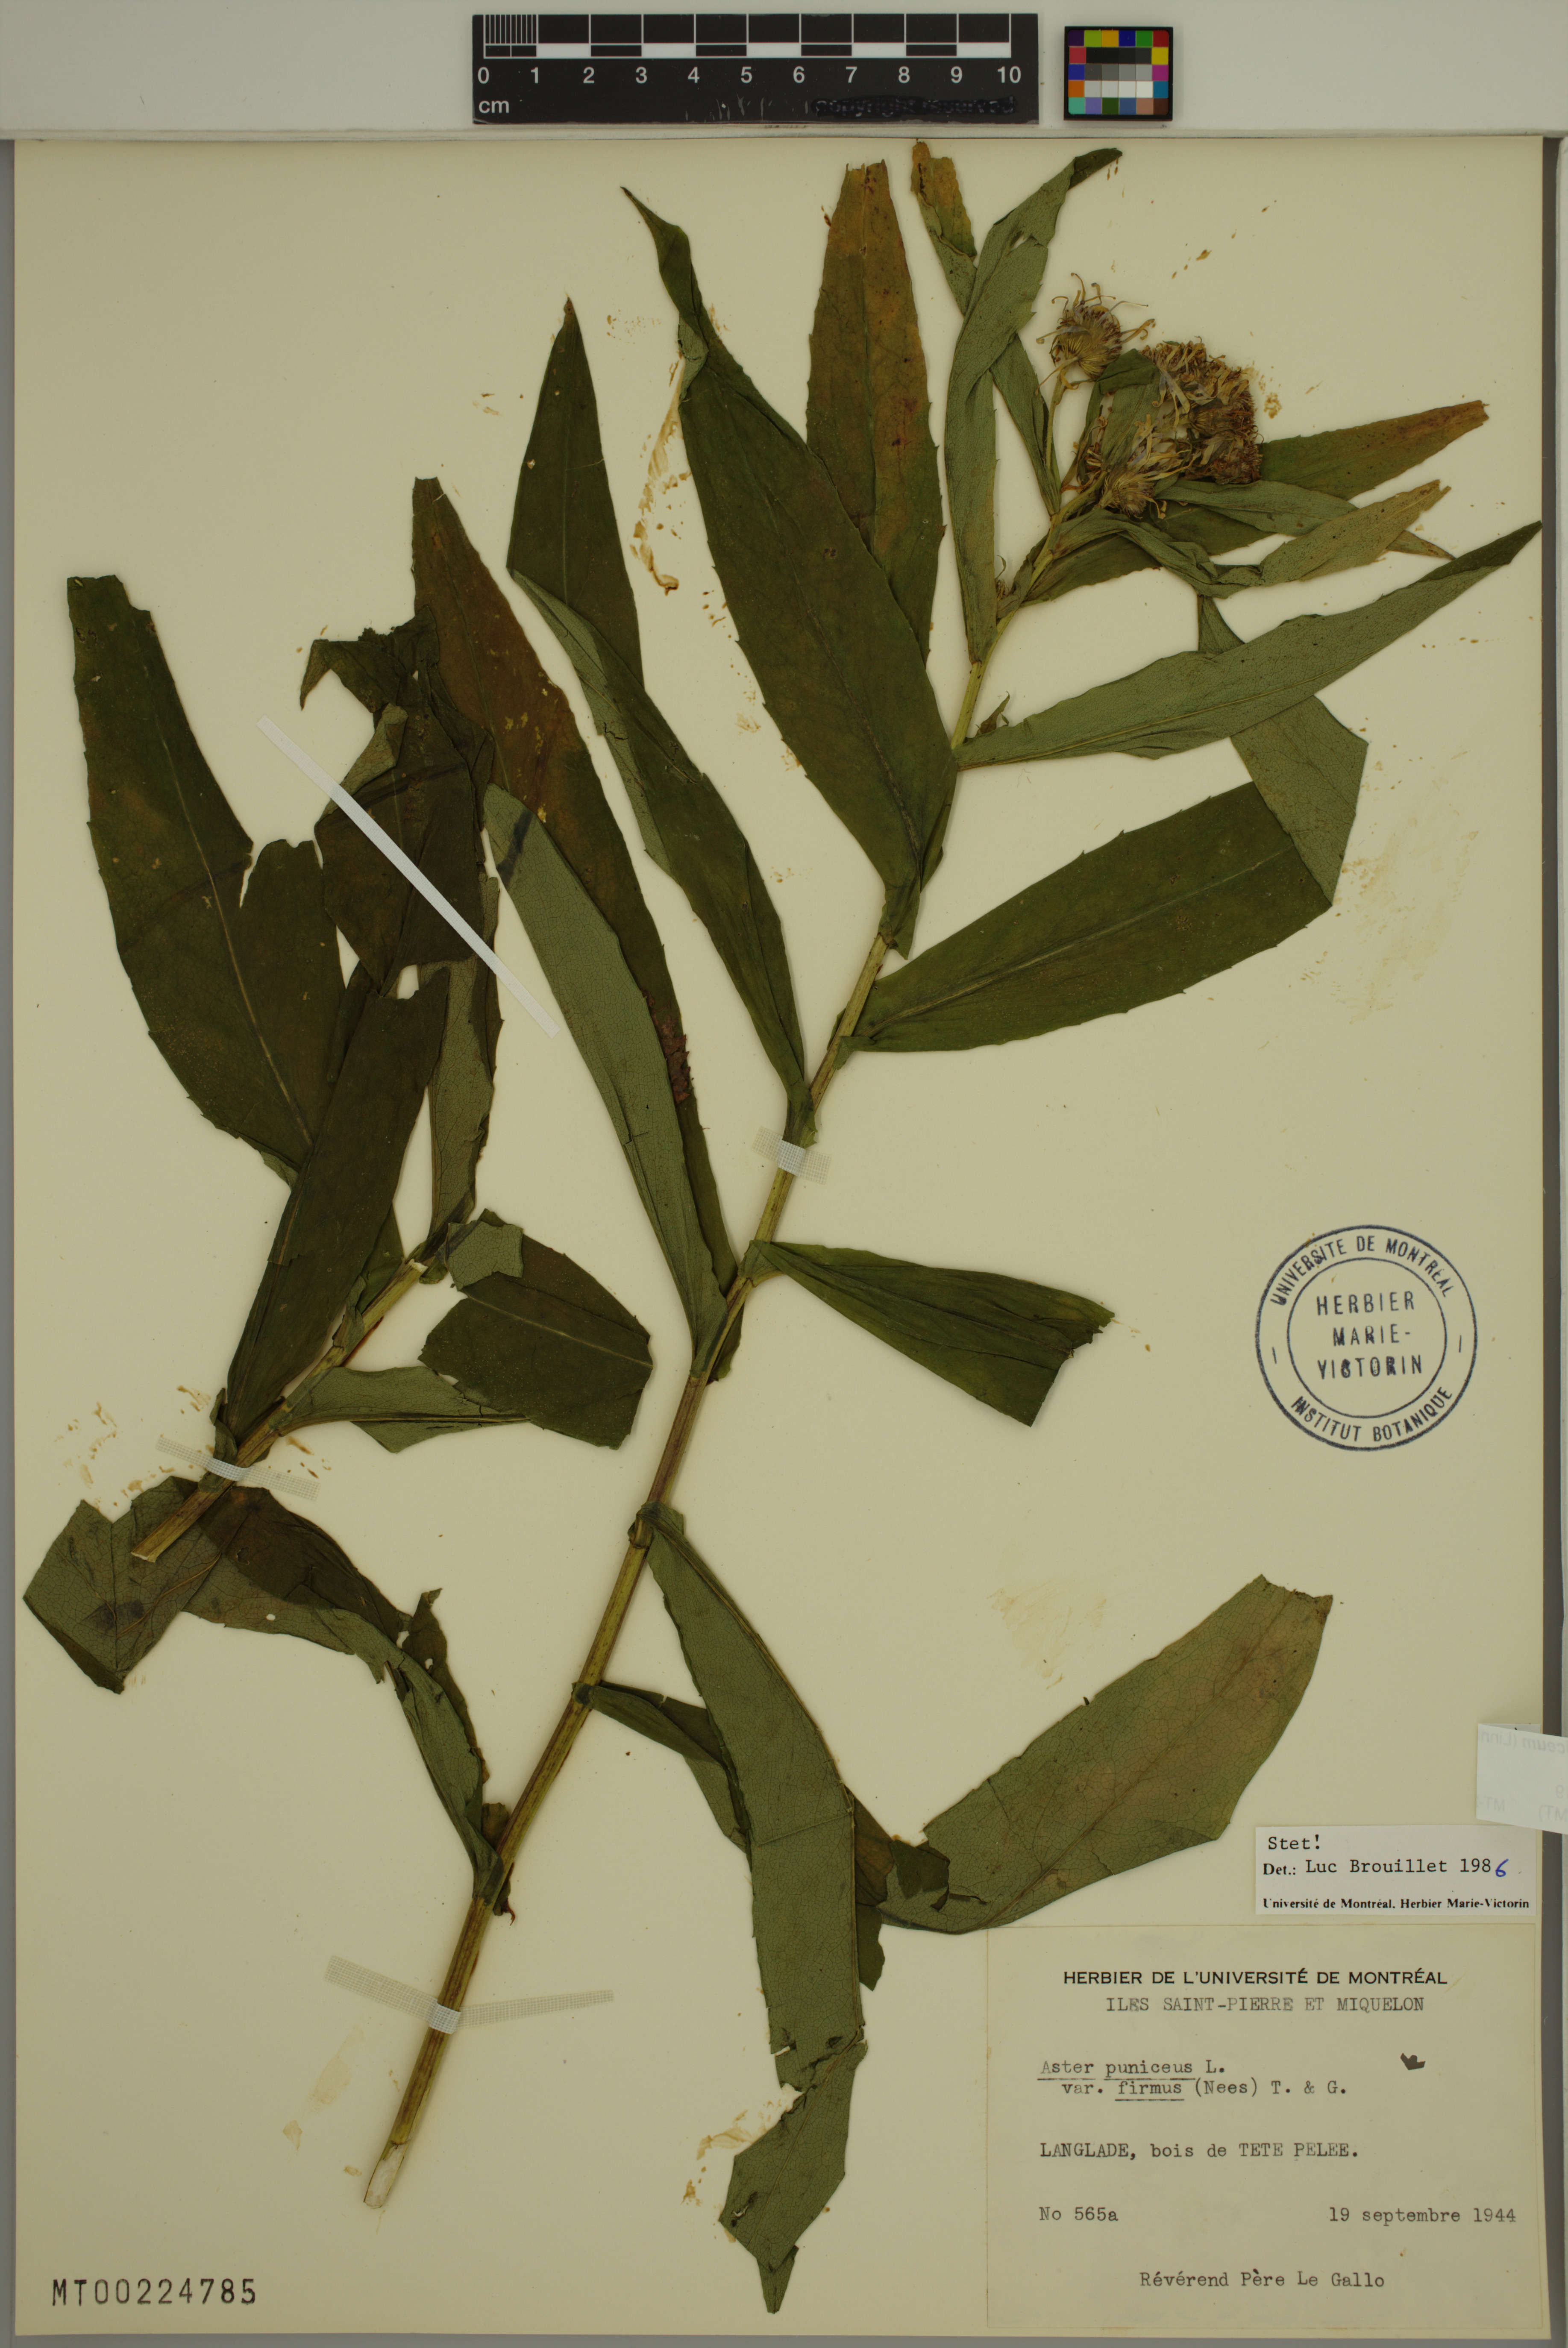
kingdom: Plantae
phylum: Tracheophyta
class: Magnoliopsida
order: Asterales
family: Asteraceae
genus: Symphyotrichum
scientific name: Symphyotrichum puniceum
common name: Bog aster
